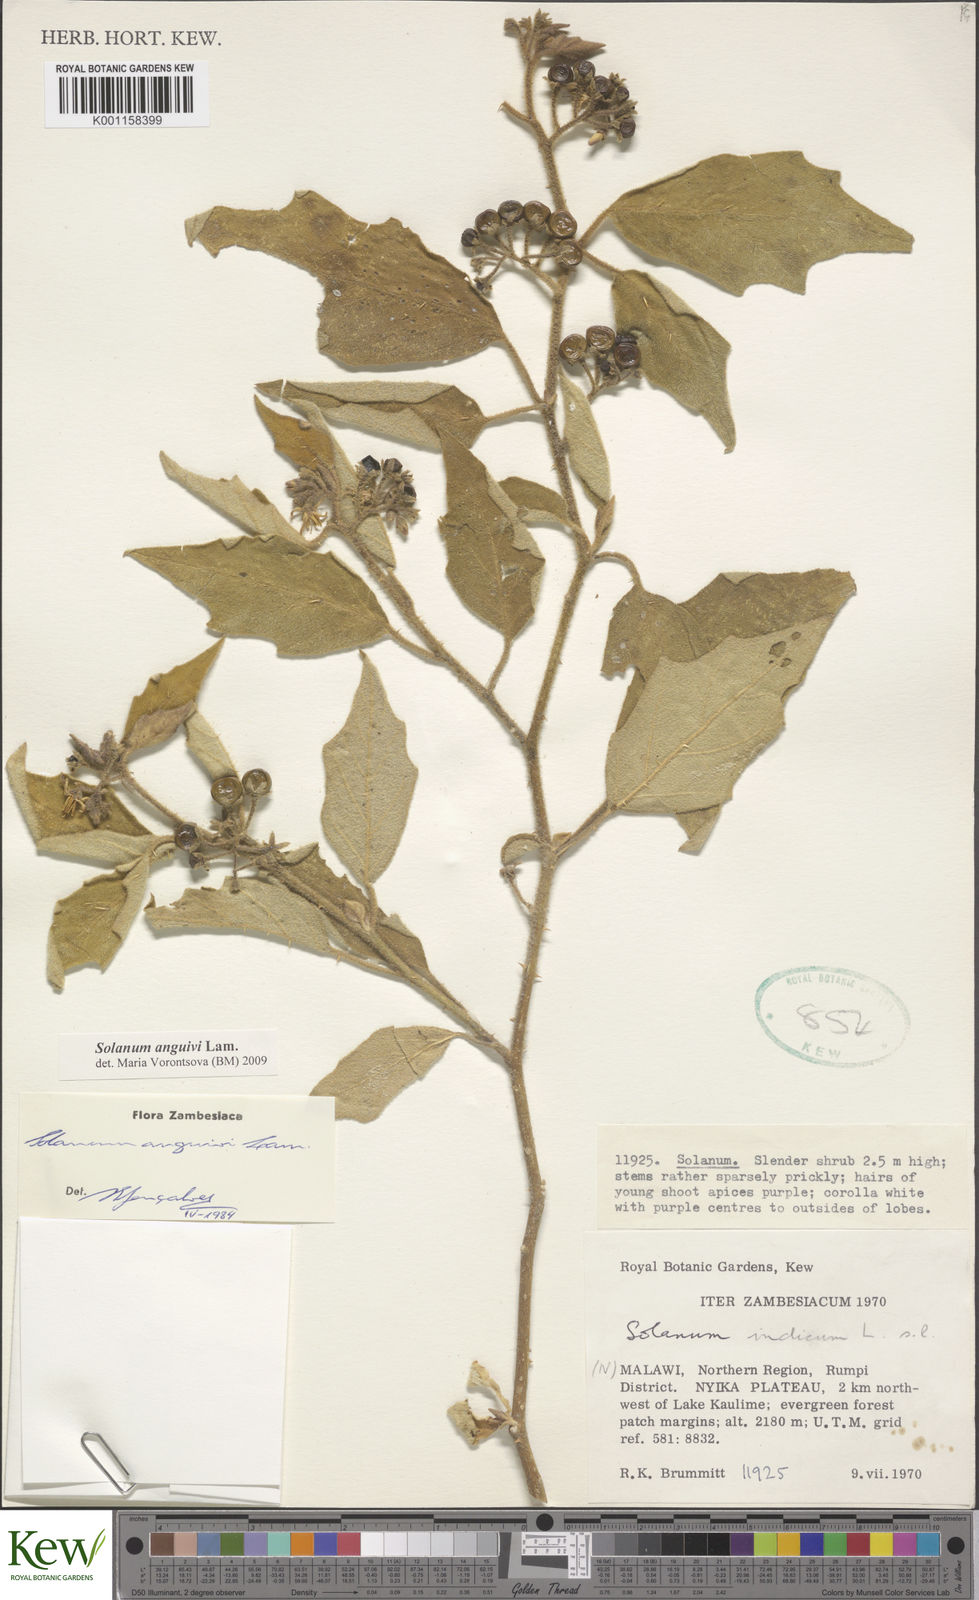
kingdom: Plantae
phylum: Tracheophyta
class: Magnoliopsida
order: Solanales
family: Solanaceae
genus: Solanum
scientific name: Solanum anguivi
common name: Forest bitterberry
